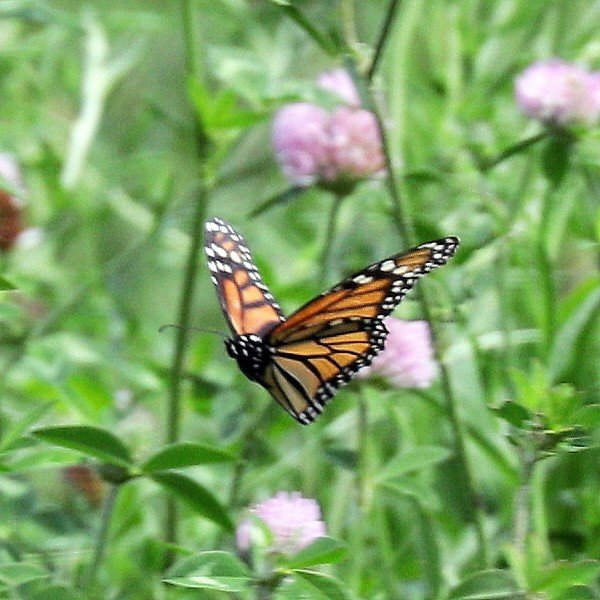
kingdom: Animalia
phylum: Arthropoda
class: Insecta
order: Lepidoptera
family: Nymphalidae
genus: Danaus
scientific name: Danaus plexippus
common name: Monarch
